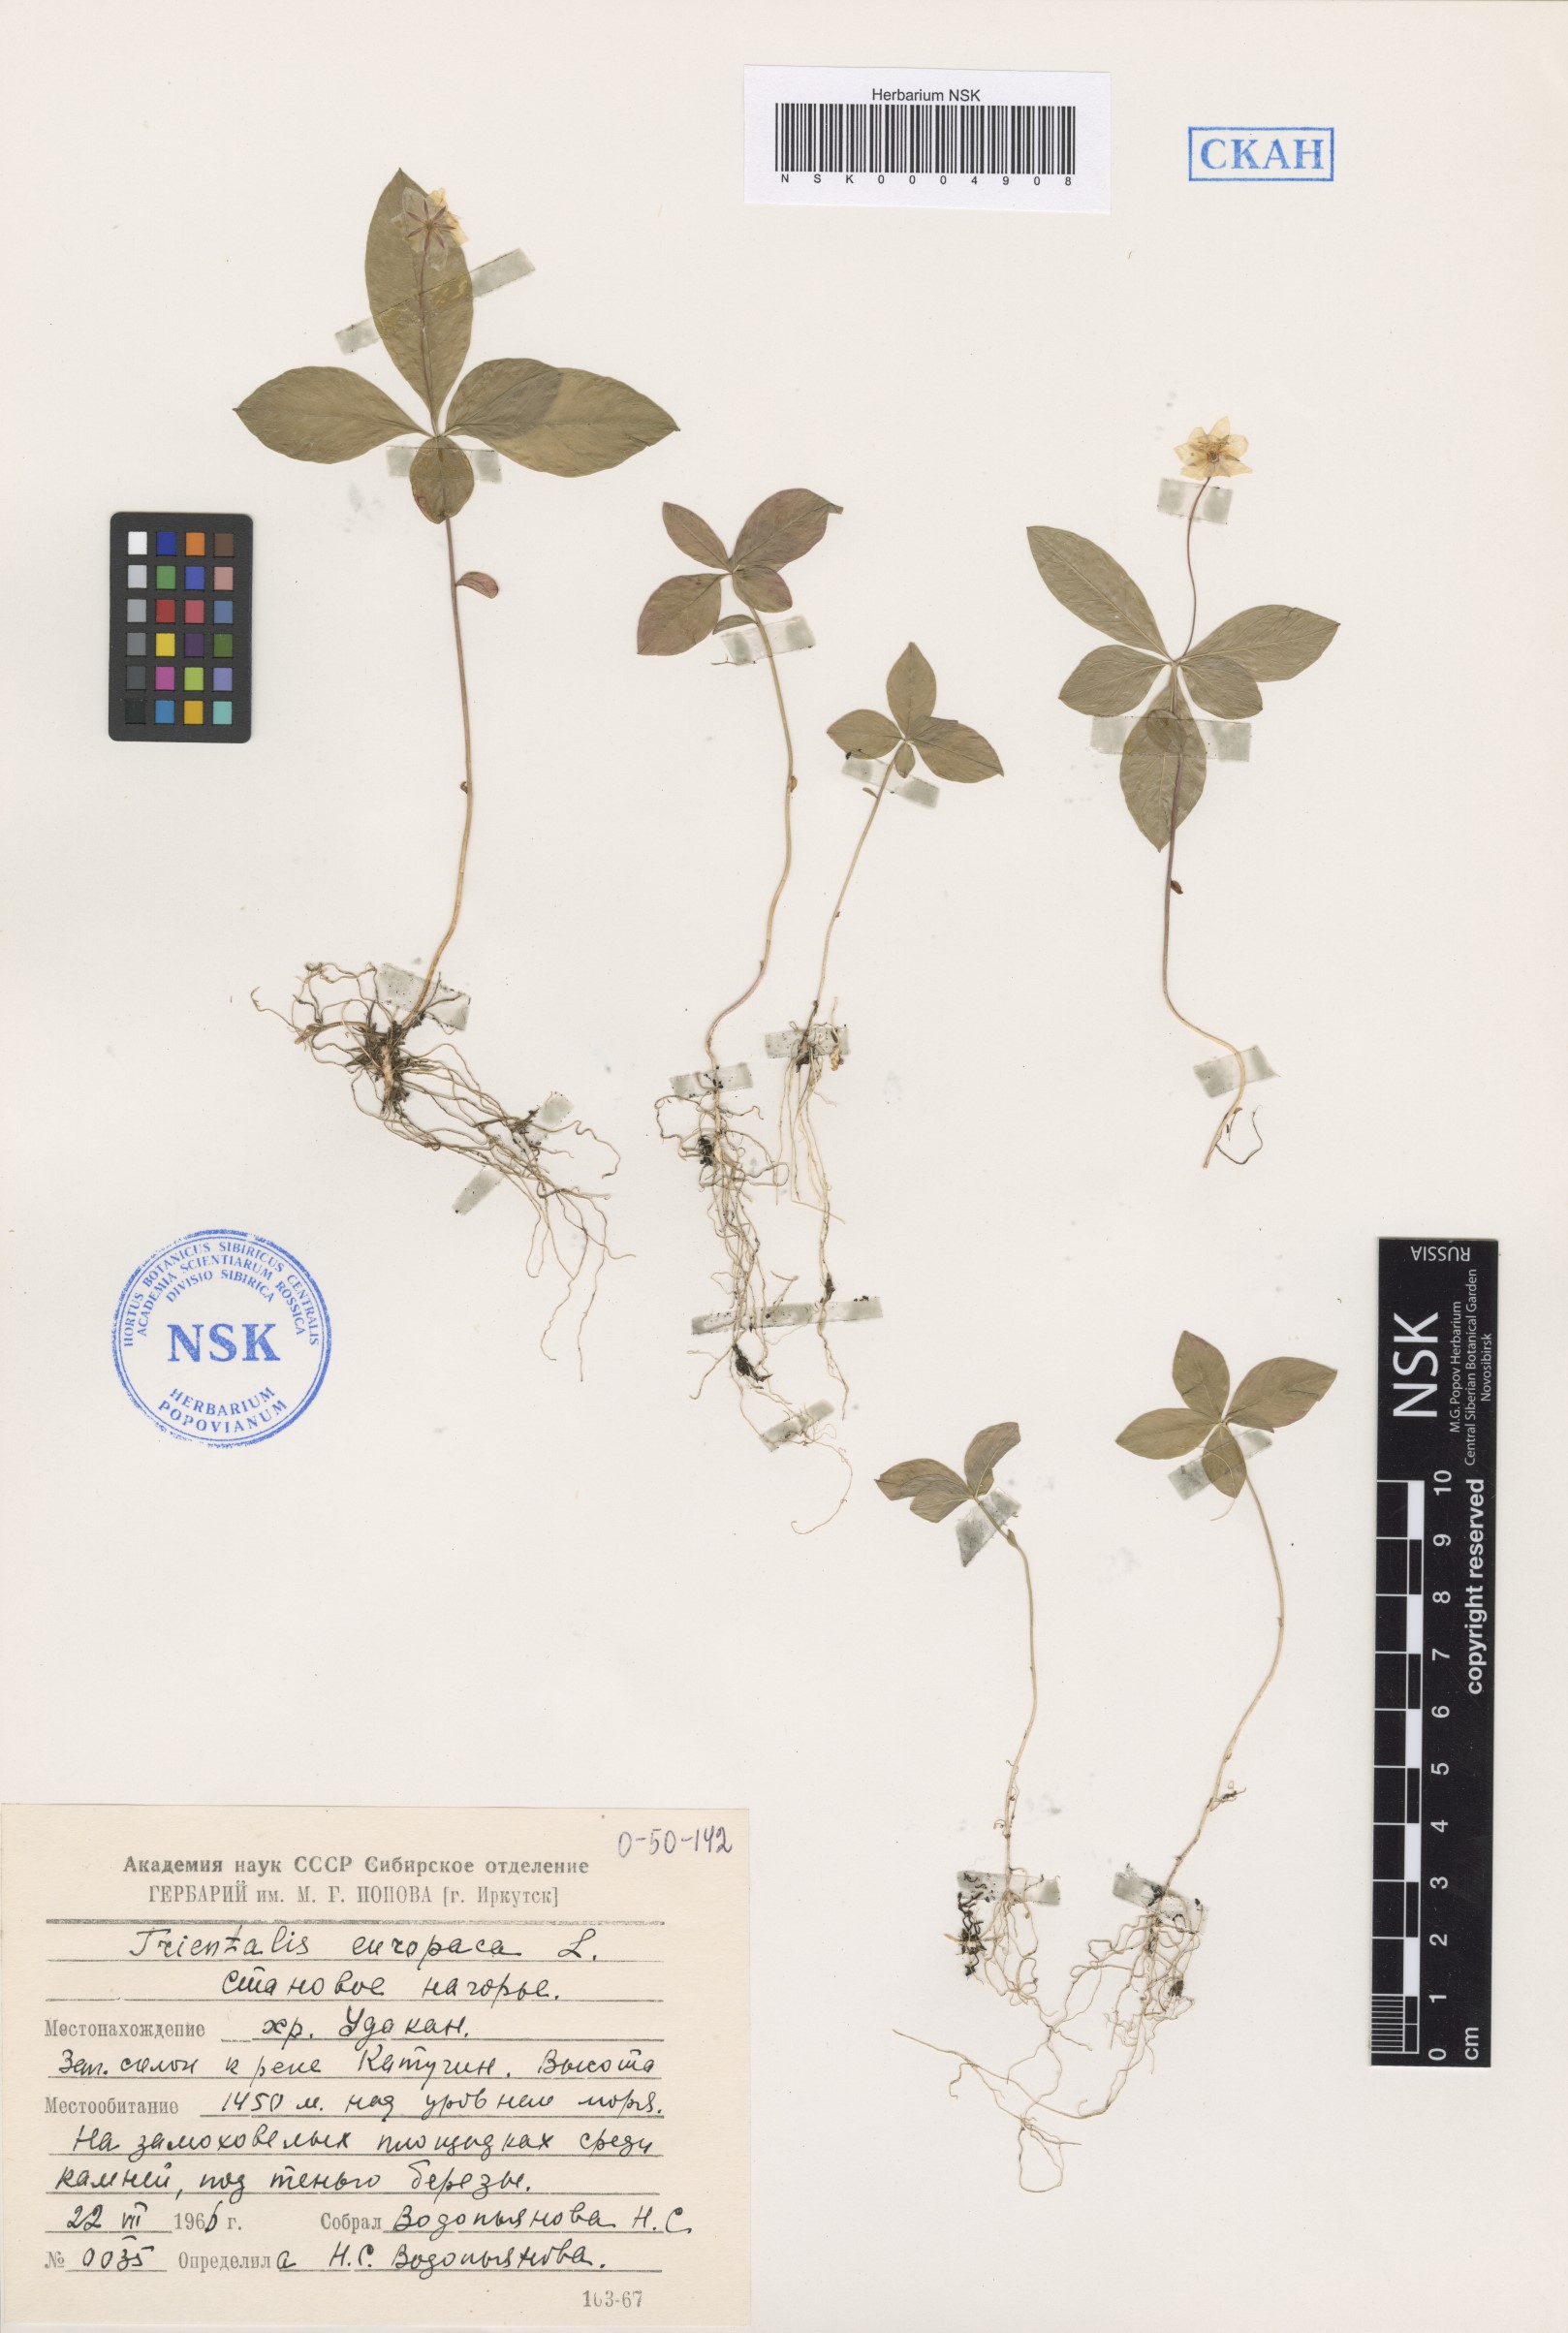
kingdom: Plantae
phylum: Tracheophyta
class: Magnoliopsida
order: Ericales
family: Primulaceae
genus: Lysimachia
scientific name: Lysimachia europaea
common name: Arctic starflower
